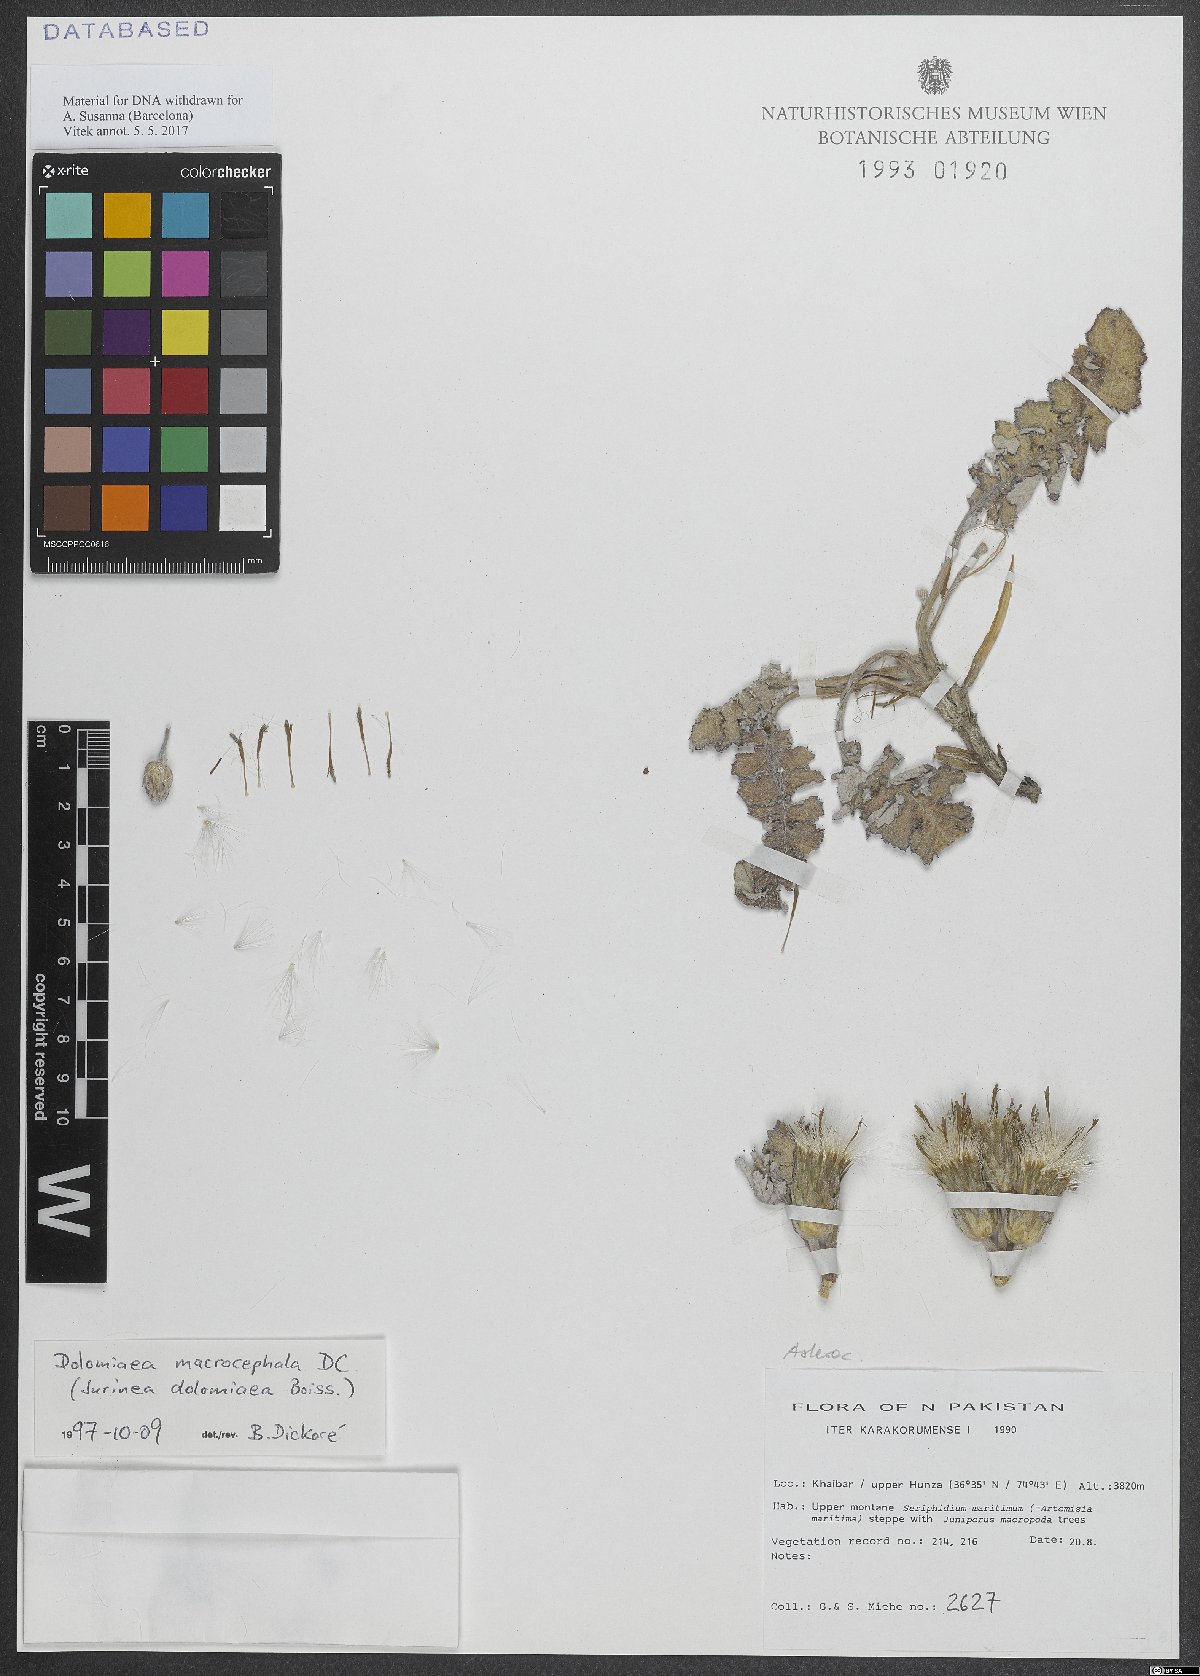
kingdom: Plantae
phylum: Tracheophyta
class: Magnoliopsida
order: Asterales
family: Asteraceae
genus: Dolomiaea
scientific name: Dolomiaea macrocephala
